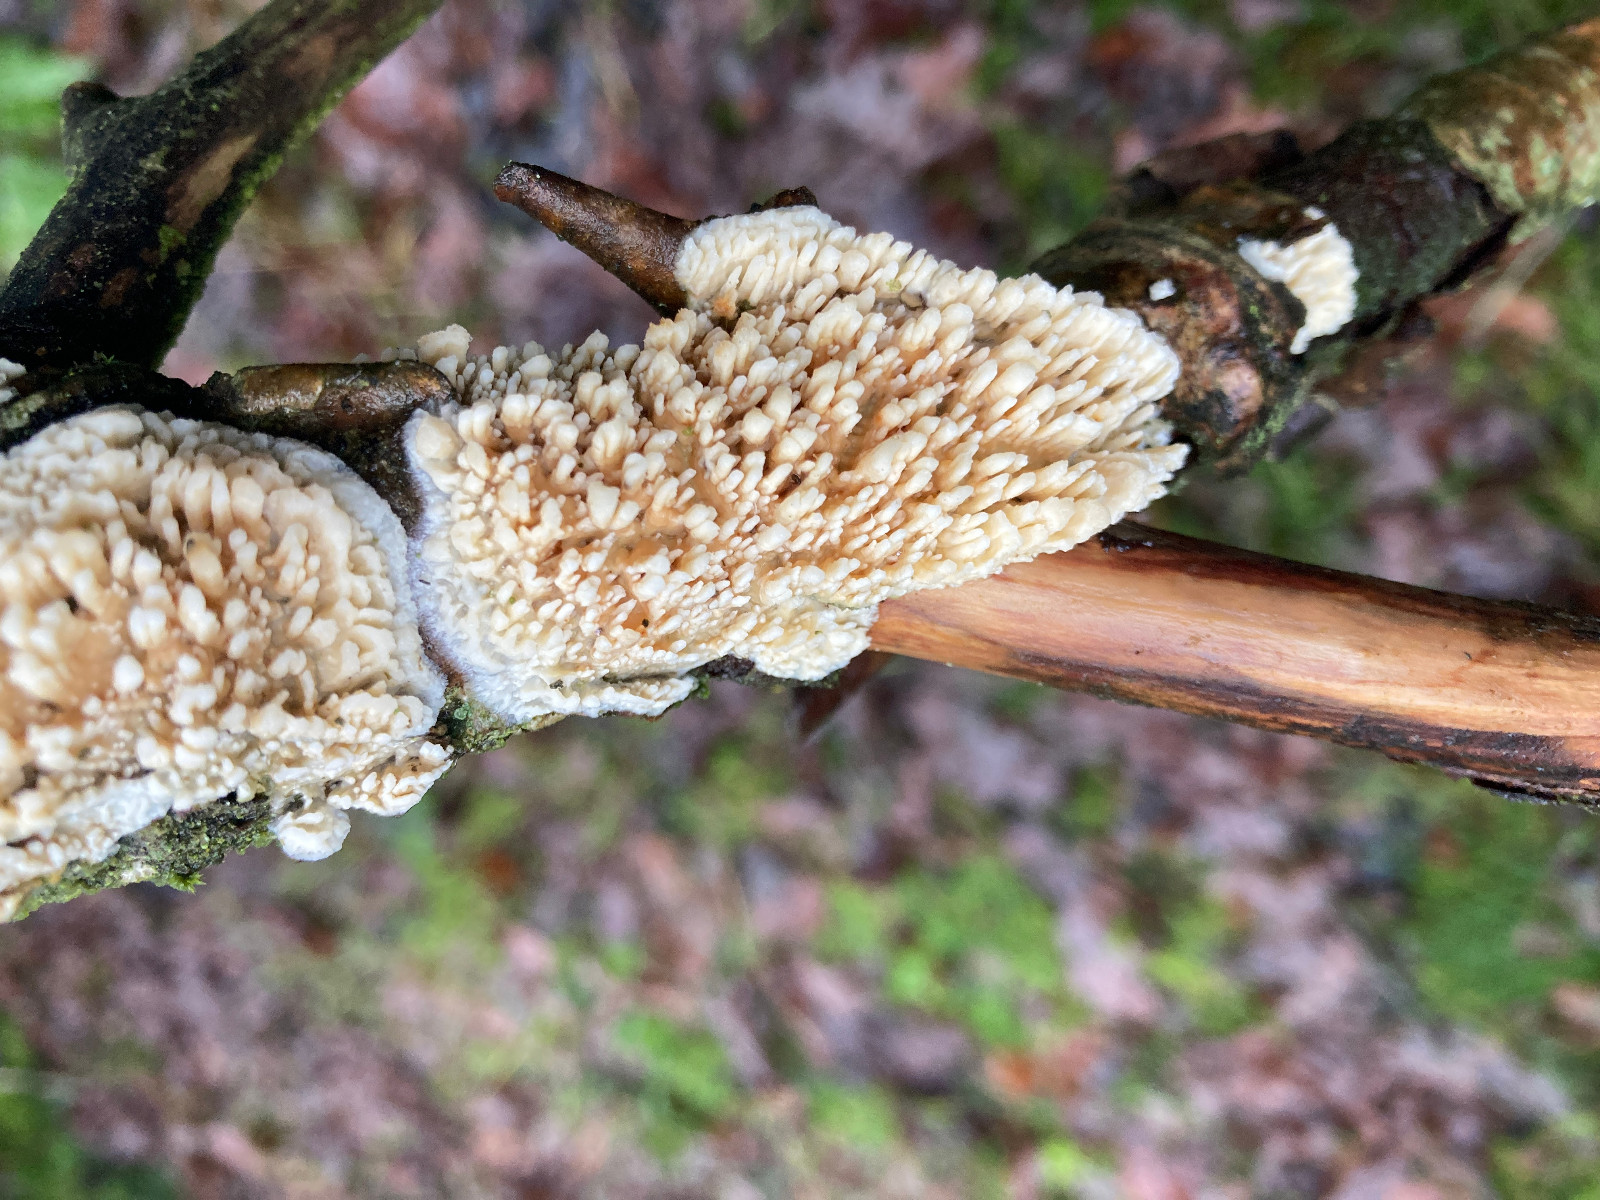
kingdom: Fungi
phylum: Basidiomycota
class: Agaricomycetes
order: Hymenochaetales
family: Schizoporaceae
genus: Xylodon
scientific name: Xylodon radula
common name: grovtandet kalkskind
